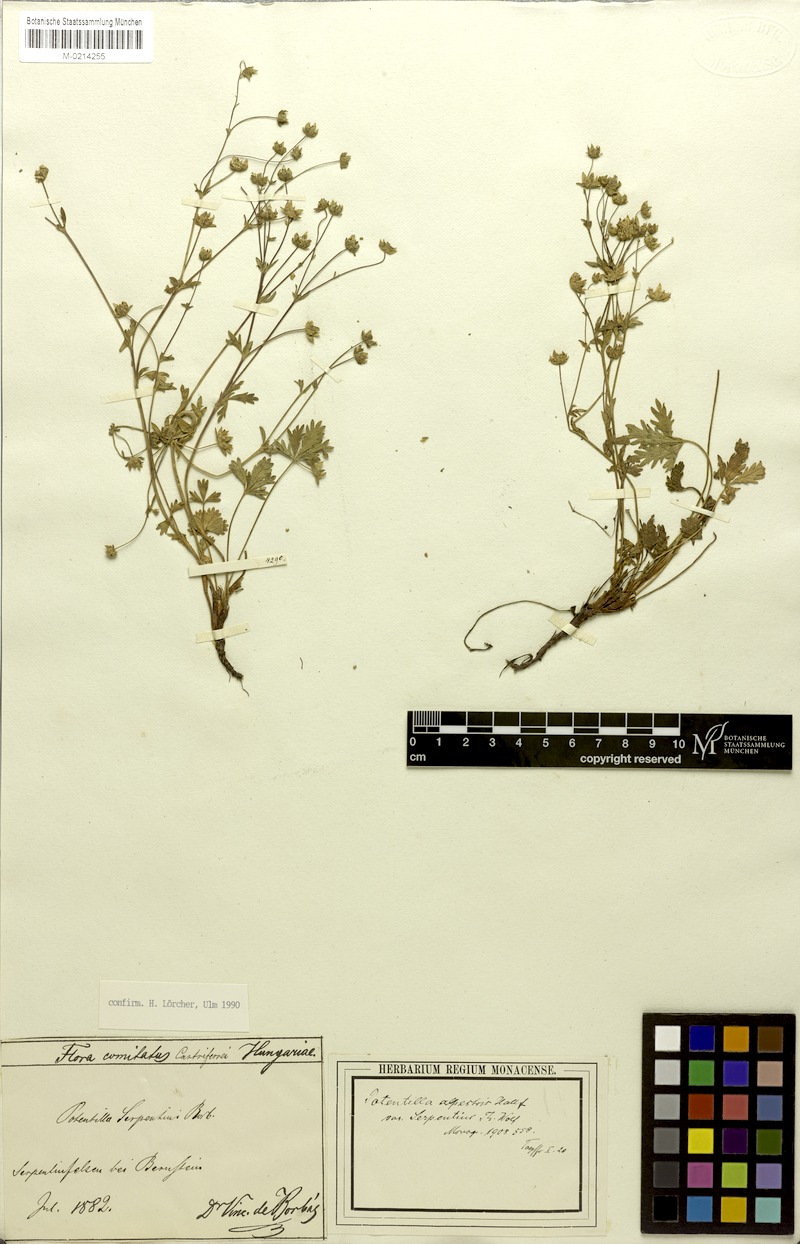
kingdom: Plantae
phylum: Tracheophyta
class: Magnoliopsida
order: Rosales
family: Rosaceae
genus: Potentilla
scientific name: Potentilla crantzii
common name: Alpine cinquefoil
